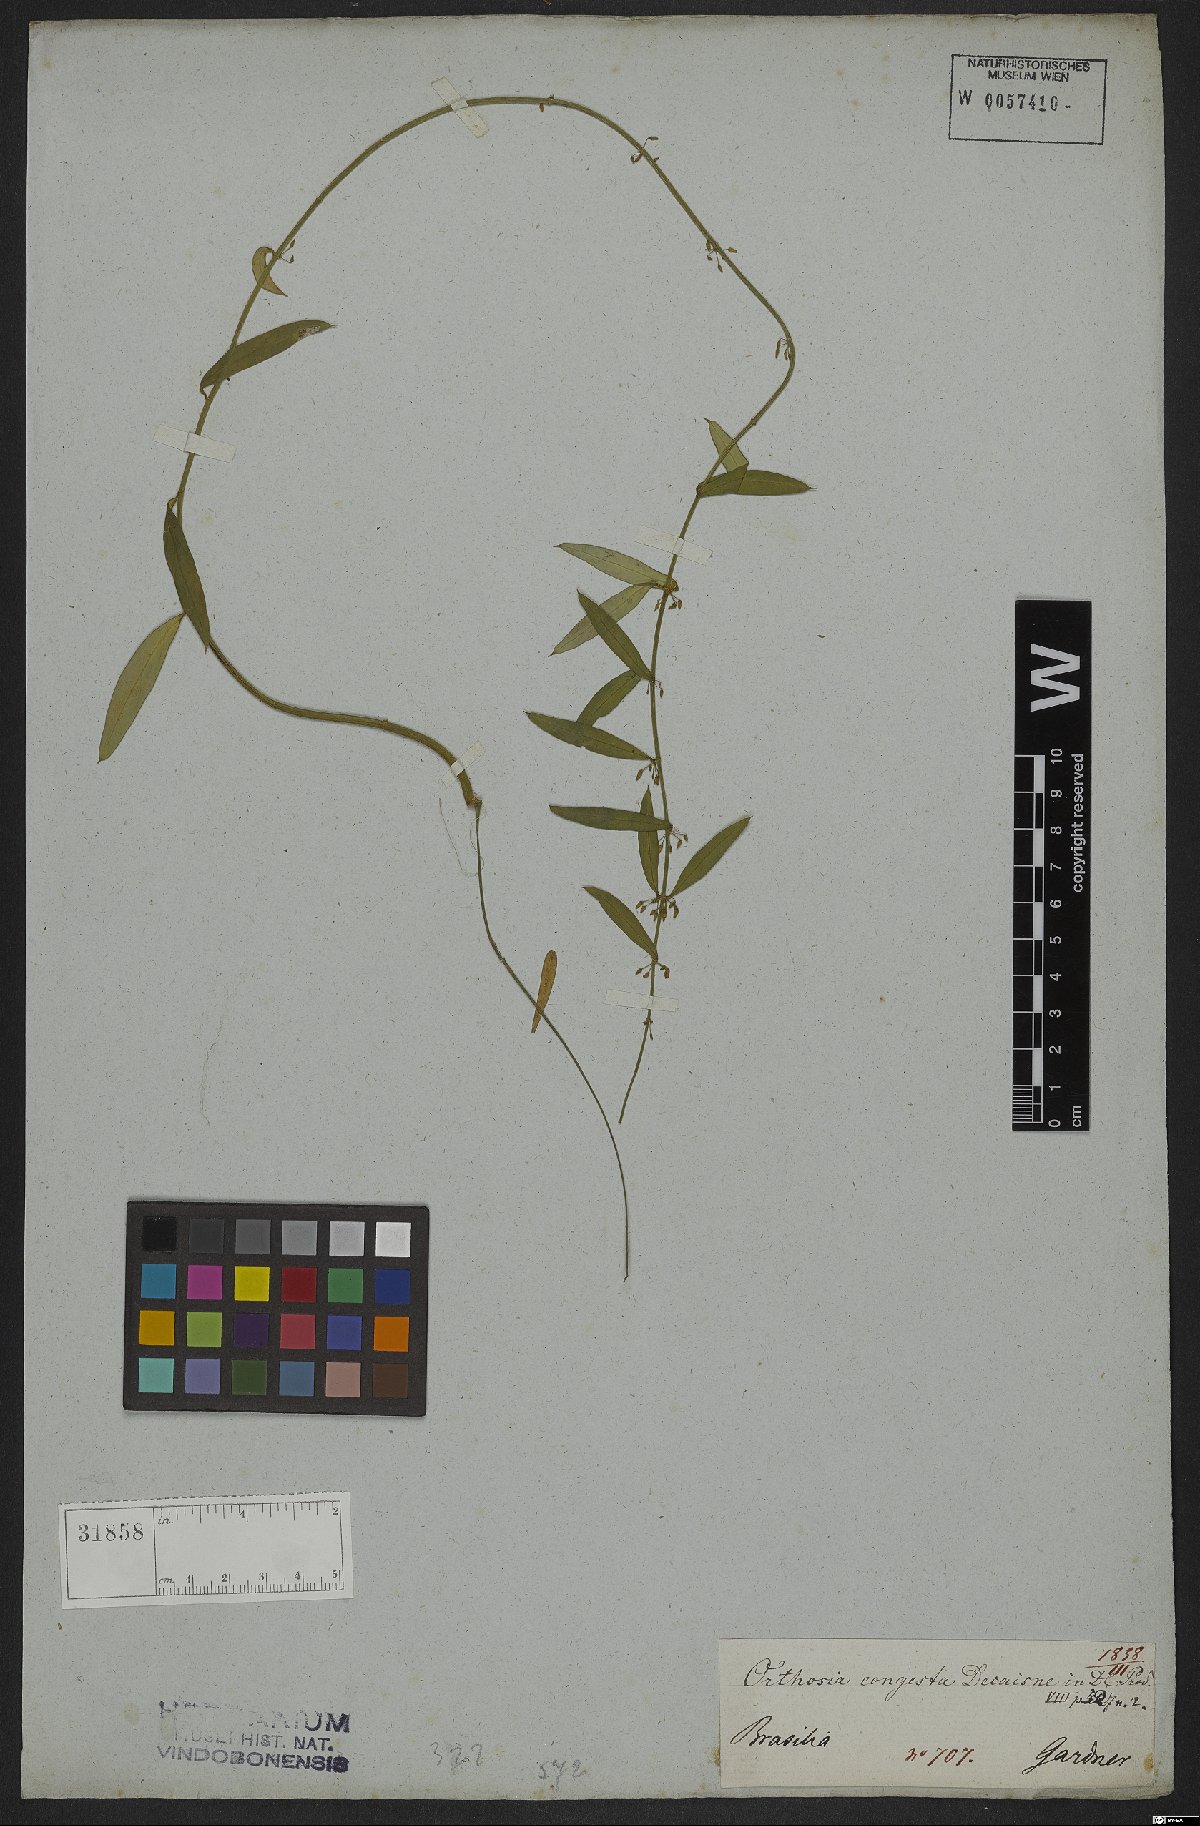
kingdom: Plantae
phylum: Tracheophyta
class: Magnoliopsida
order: Gentianales
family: Apocynaceae
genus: Orthosia
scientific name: Orthosia congesta
